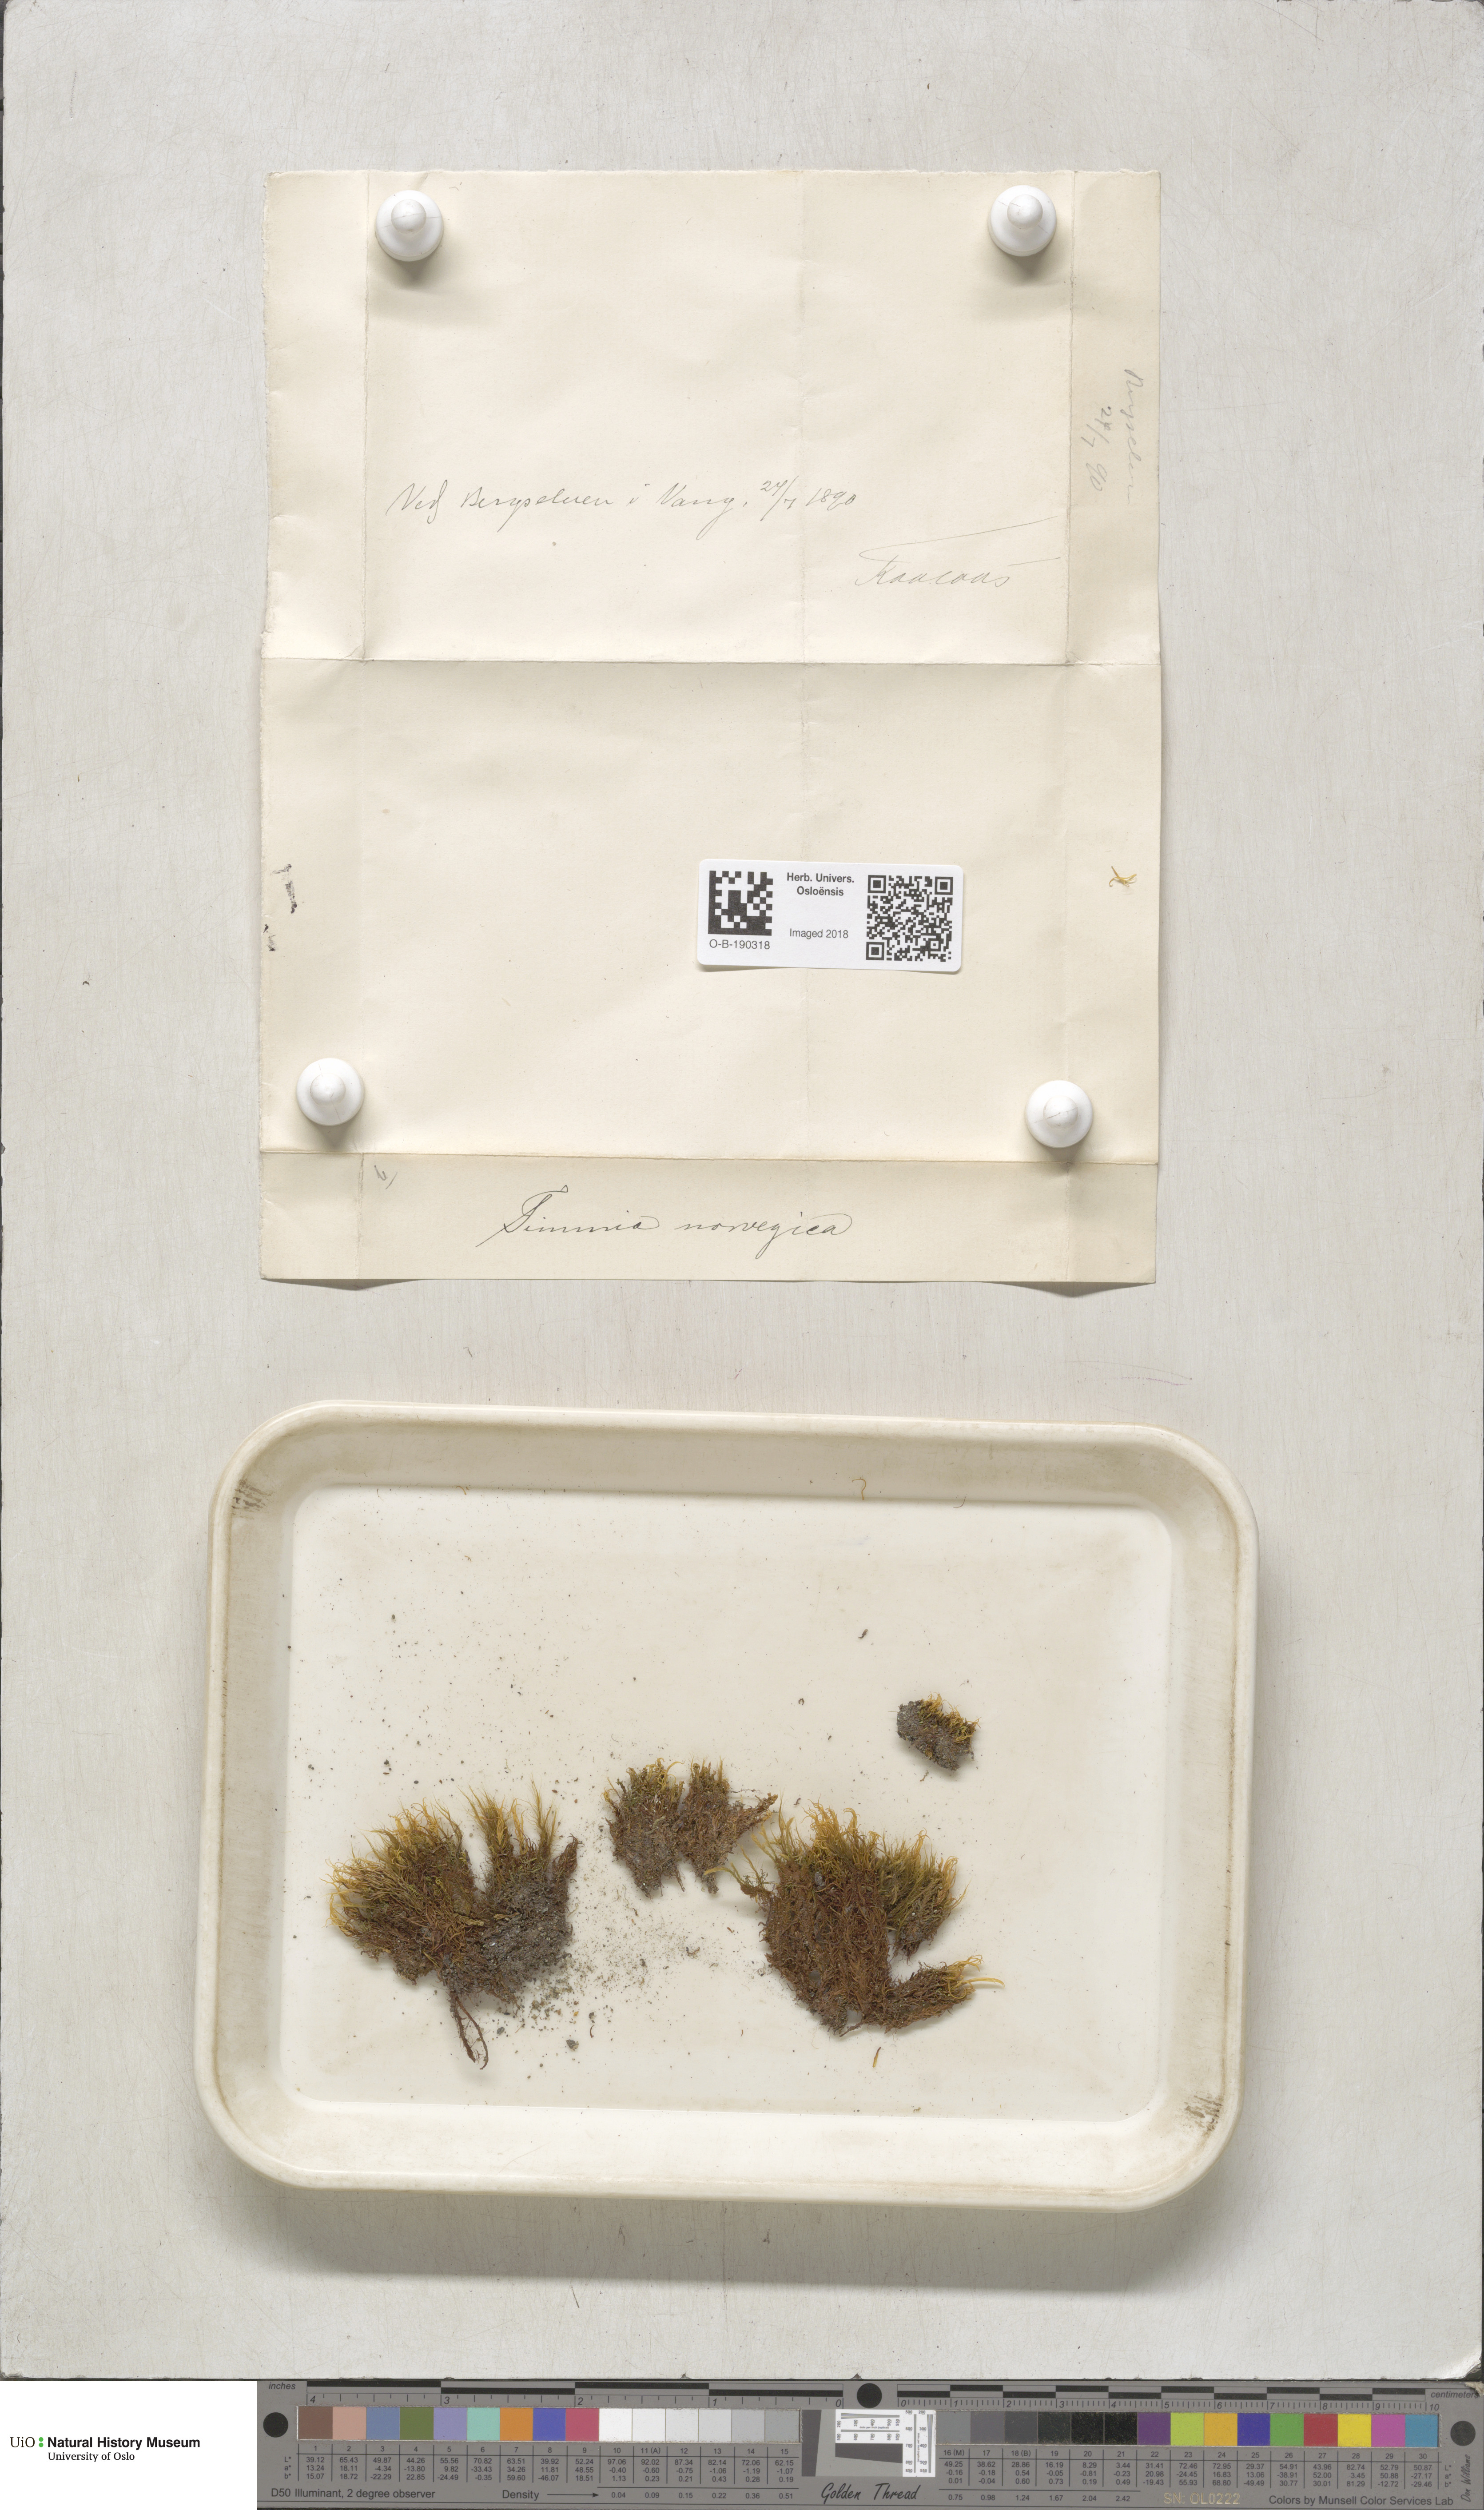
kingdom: Plantae
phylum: Bryophyta
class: Bryopsida
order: Timmiales
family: Timmiaceae
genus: Timmia
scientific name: Timmia norvegica
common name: Norway timmia
